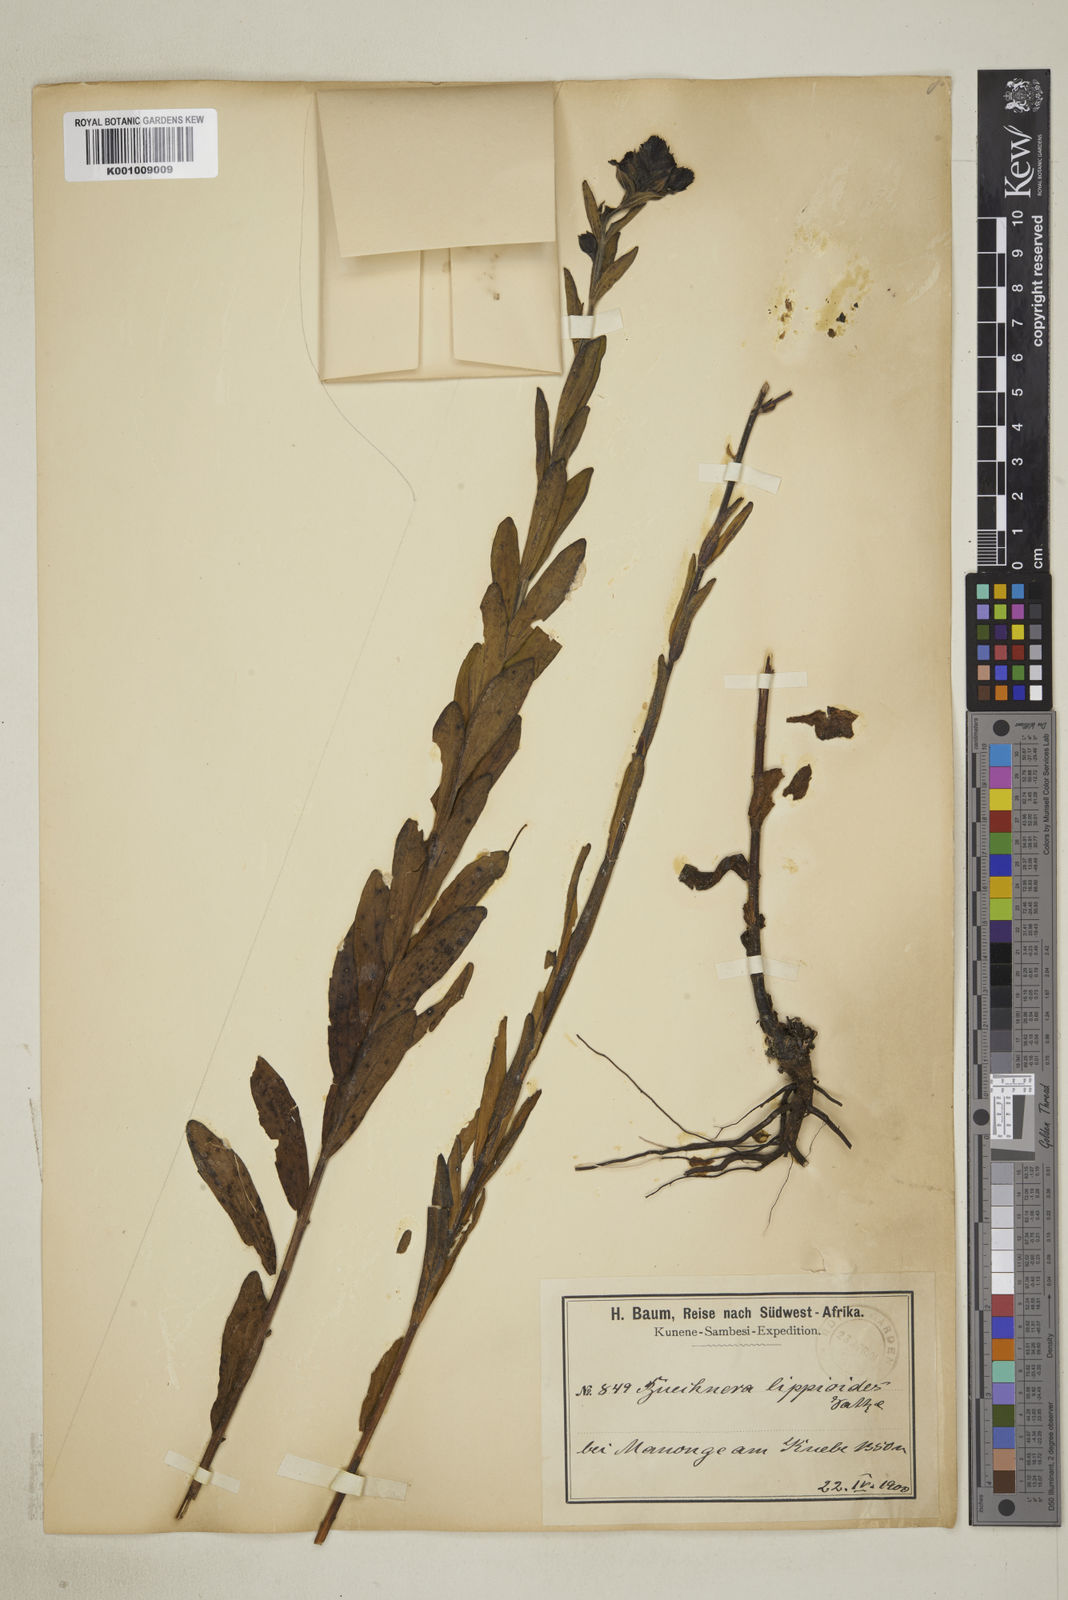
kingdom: Plantae
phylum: Tracheophyta
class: Magnoliopsida
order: Lamiales
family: Orobanchaceae
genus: Buchnera
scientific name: Buchnera lippioides
